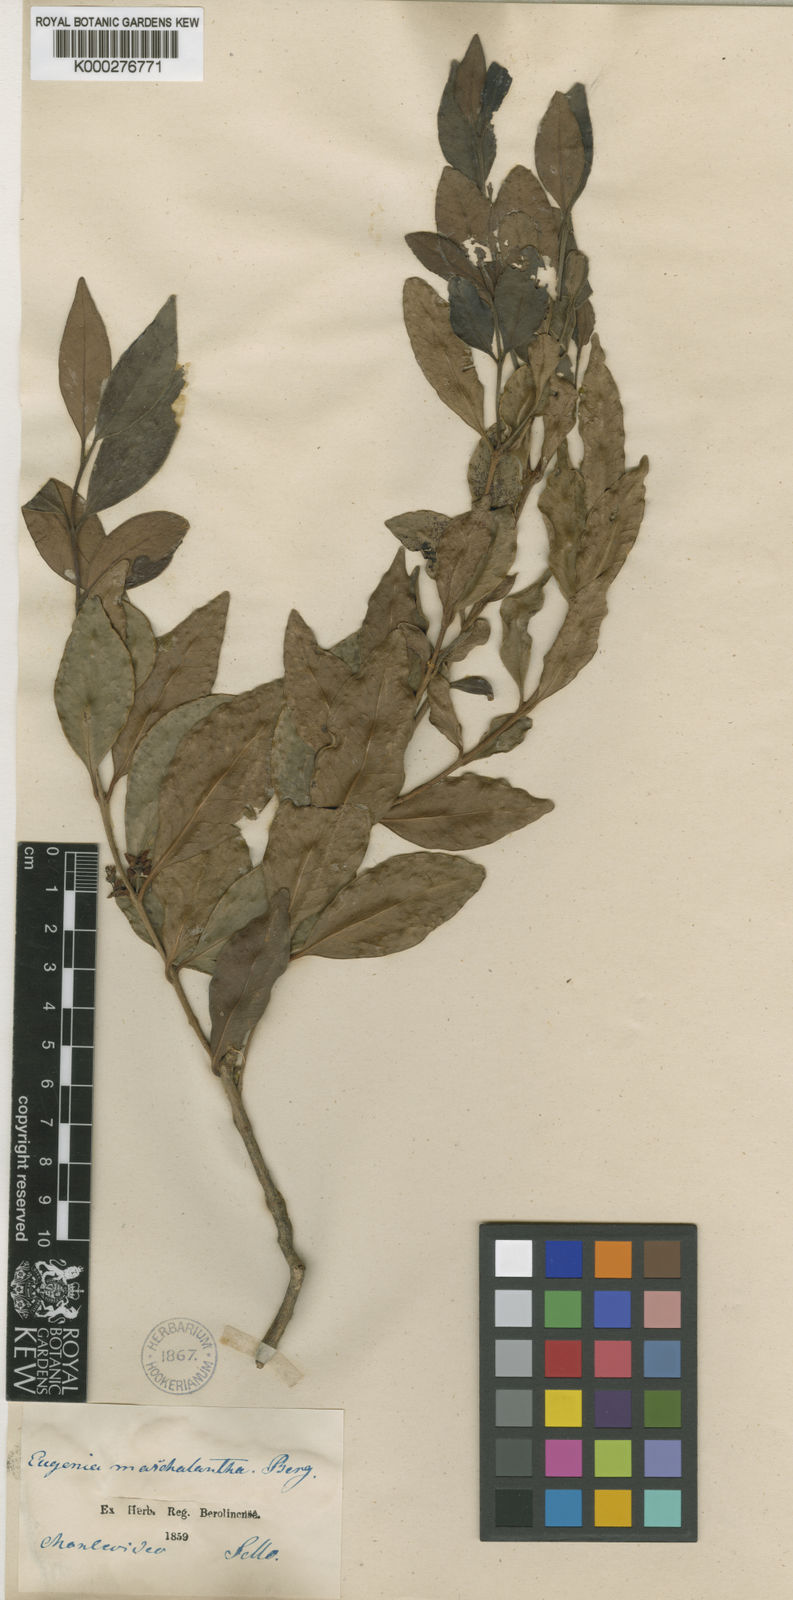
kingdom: Plantae
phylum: Tracheophyta
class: Magnoliopsida
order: Myrtales
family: Myrtaceae
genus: Eugenia
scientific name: Eugenia uruguayensis
